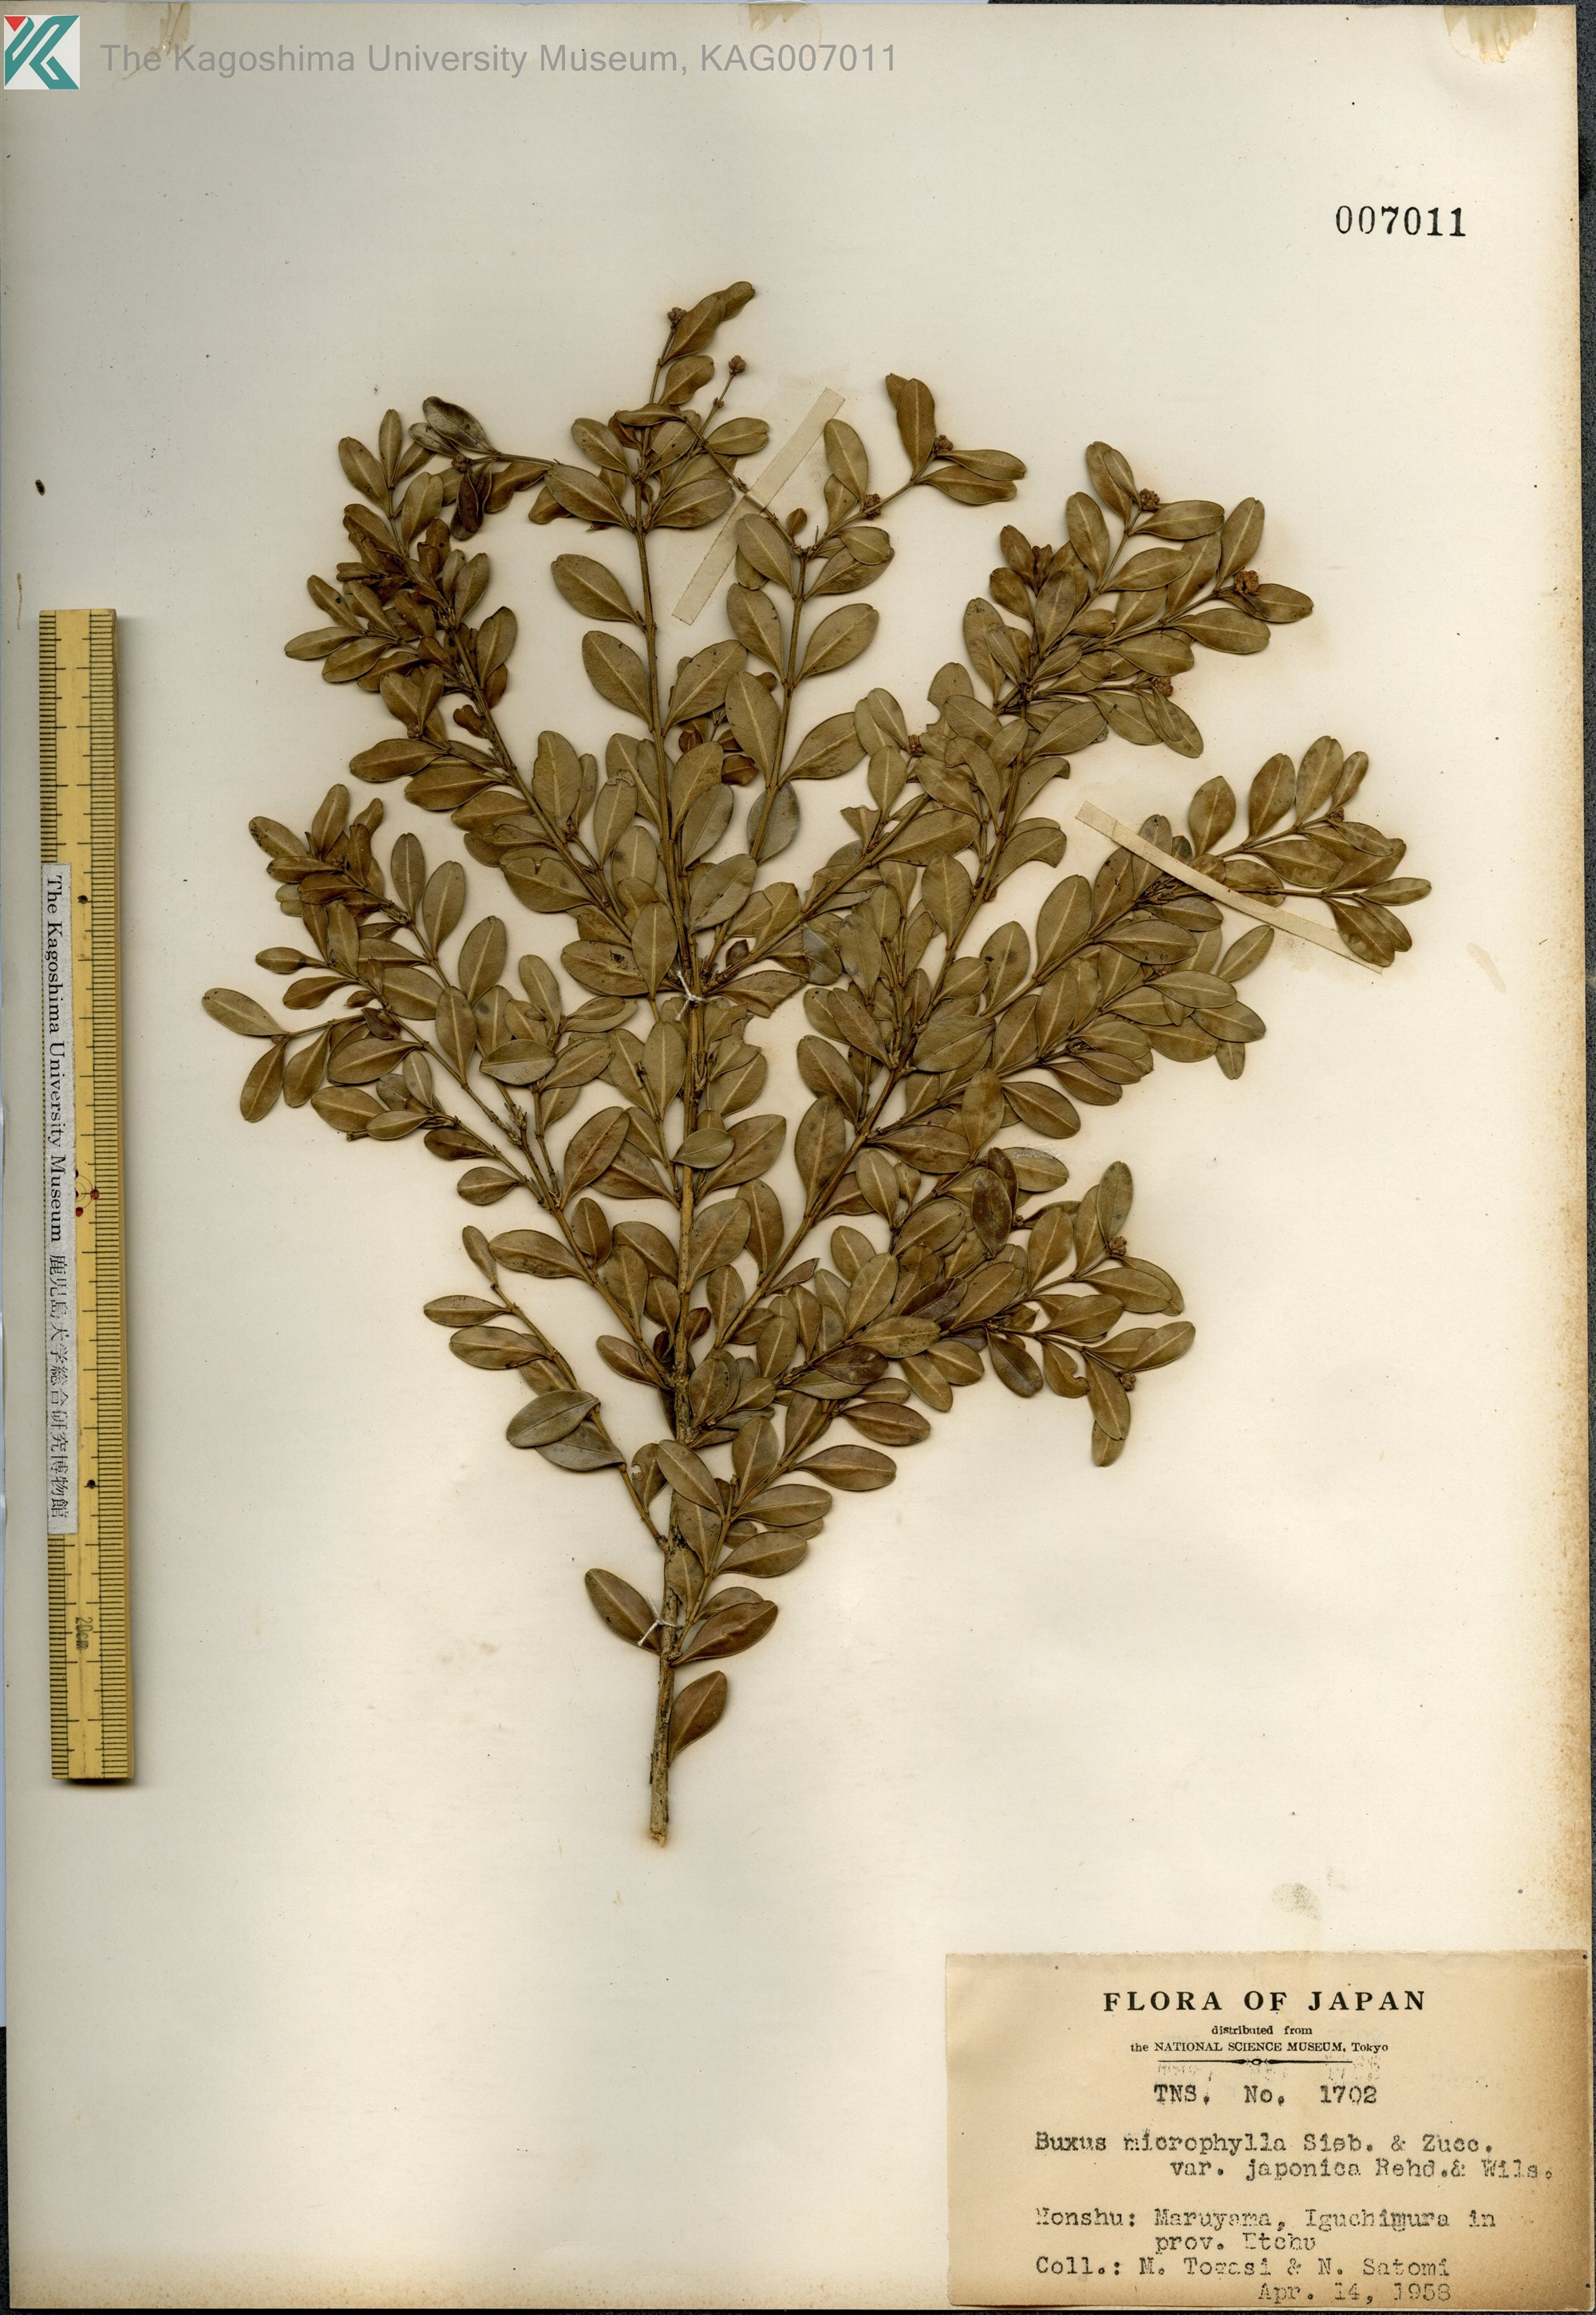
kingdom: Plantae
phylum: Tracheophyta
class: Magnoliopsida
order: Buxales
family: Buxaceae
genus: Buxus
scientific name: Buxus microphylla
